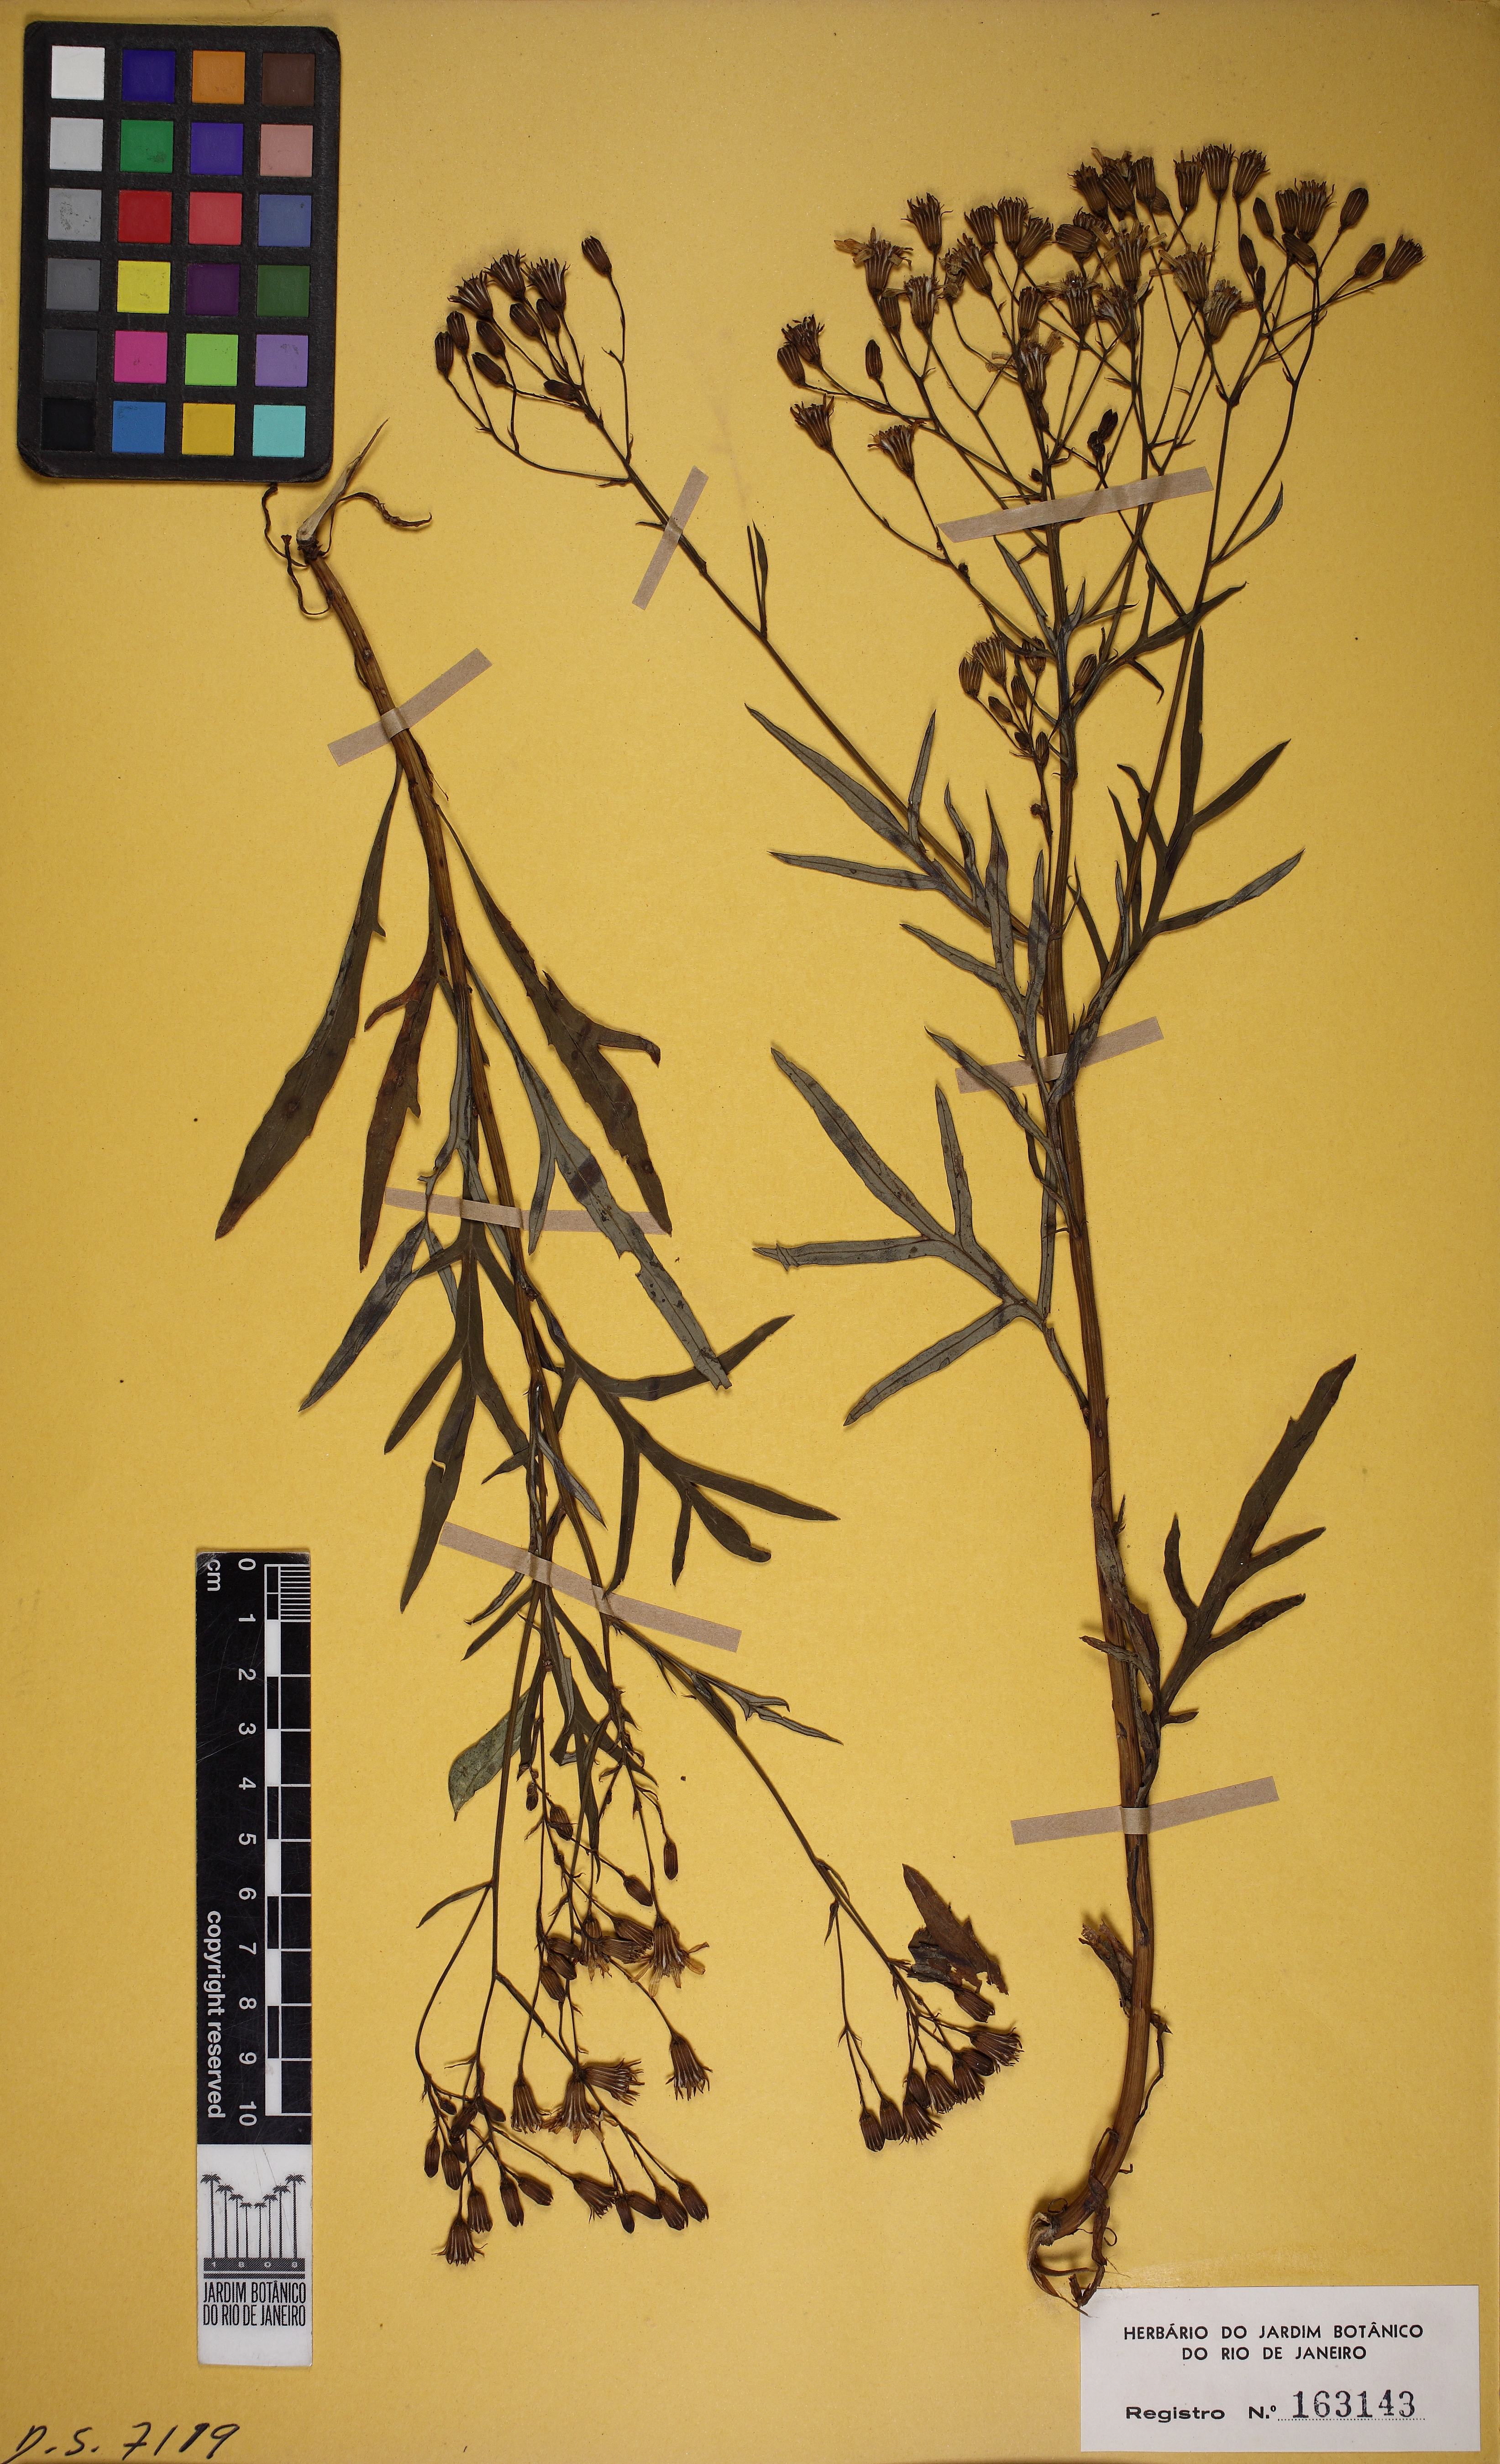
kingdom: Plantae
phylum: Tracheophyta
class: Magnoliopsida
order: Asterales
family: Asteraceae
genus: Senecio
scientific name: Senecio brasiliensis
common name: Hemp-leaf ragwort
